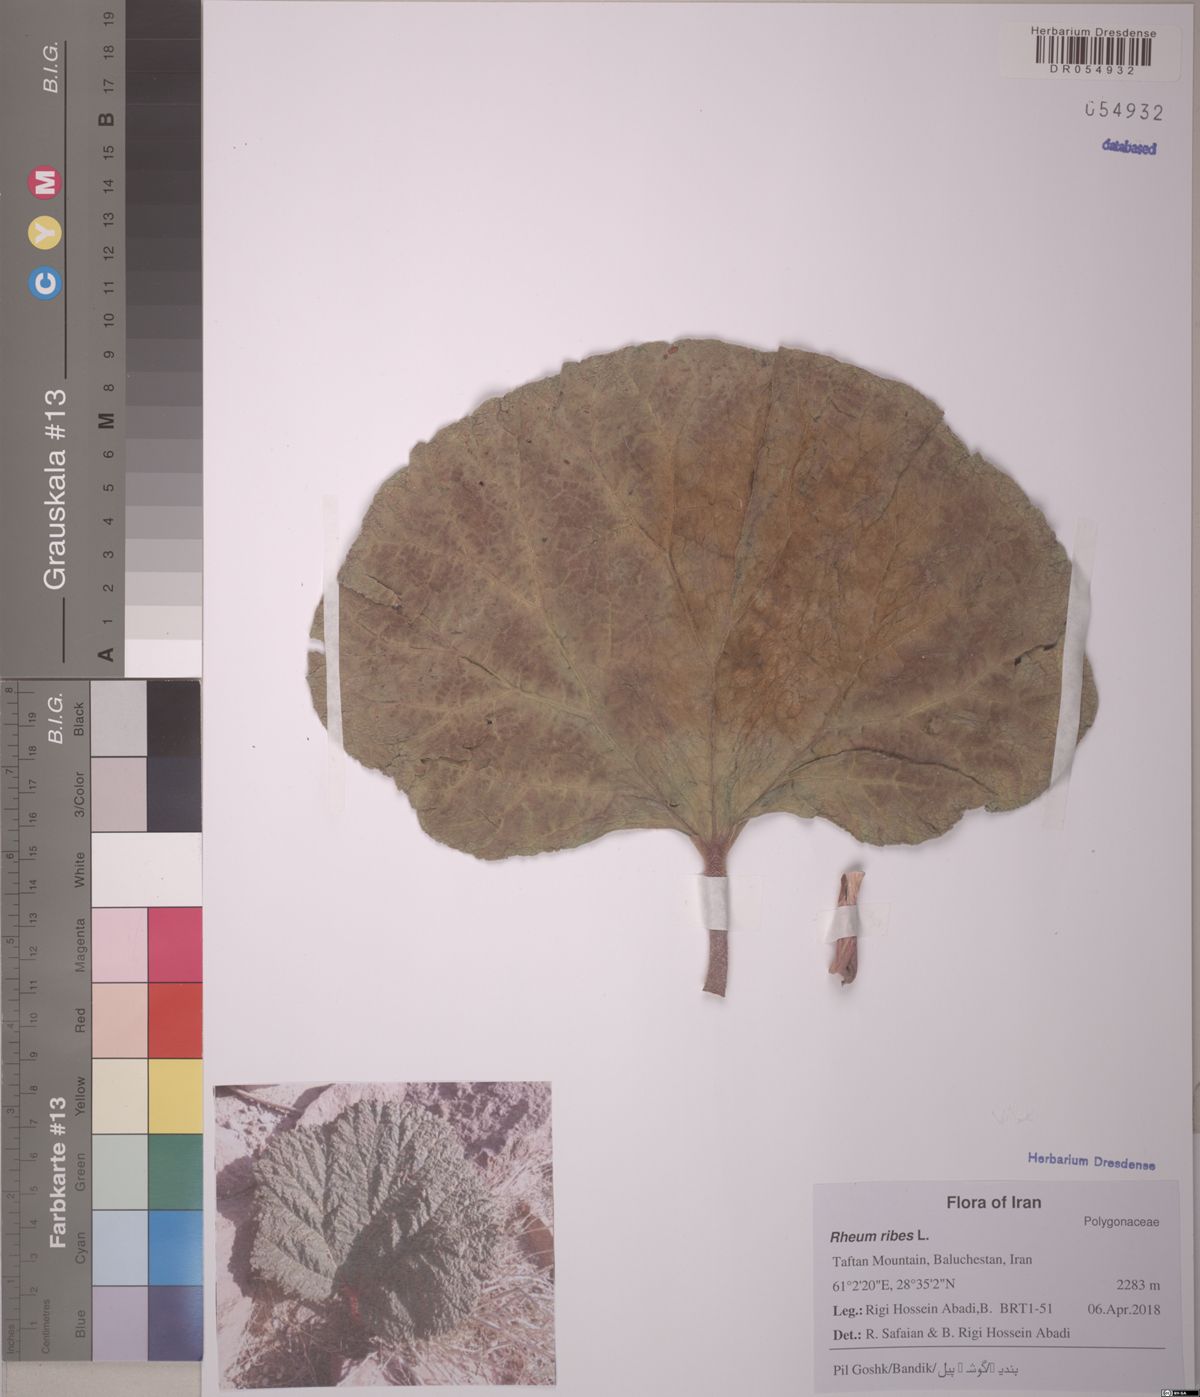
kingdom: Plantae
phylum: Tracheophyta
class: Magnoliopsida
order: Caryophyllales
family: Polygonaceae
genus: Rheum
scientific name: Rheum ribes
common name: Syrian rhubarb
